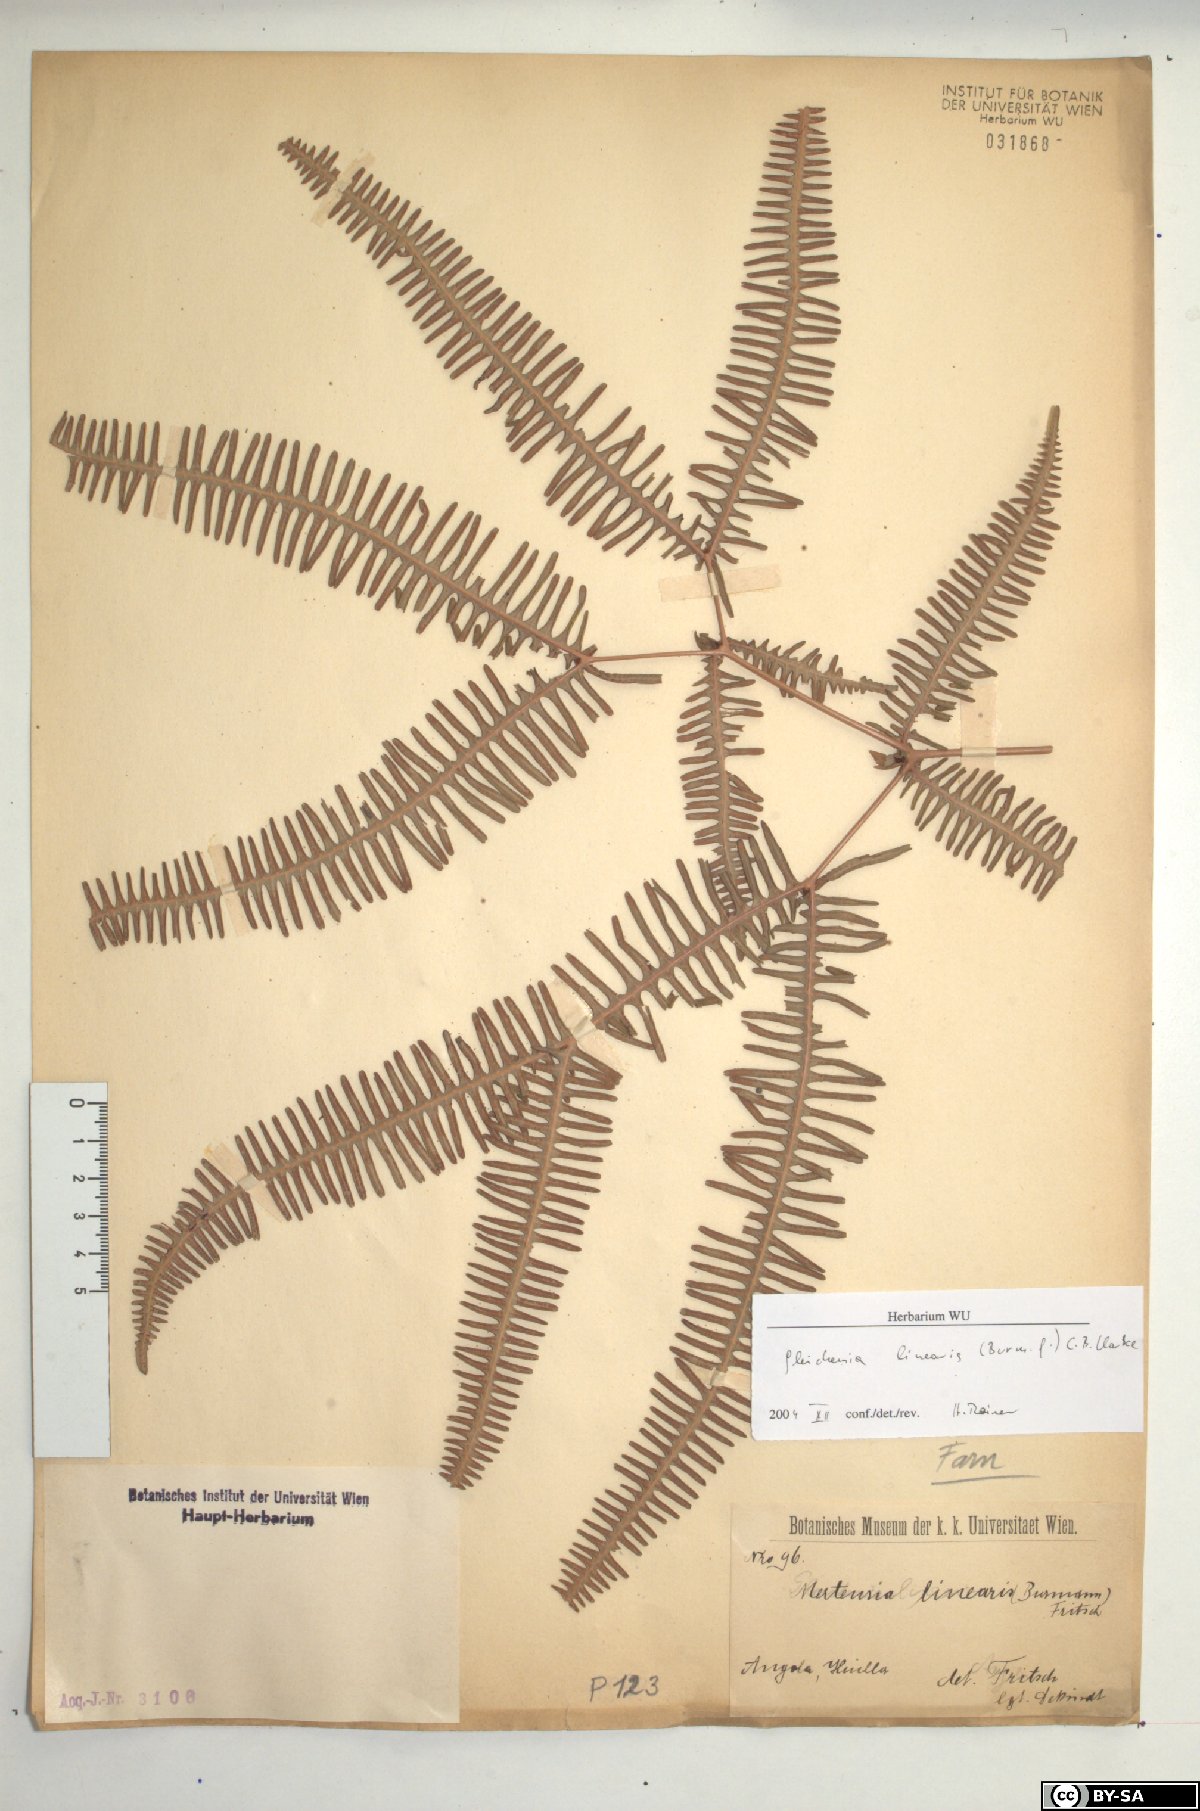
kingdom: Plantae
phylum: Tracheophyta
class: Polypodiopsida
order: Gleicheniales
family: Gleicheniaceae
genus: Dicranopteris
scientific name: Dicranopteris linearis
